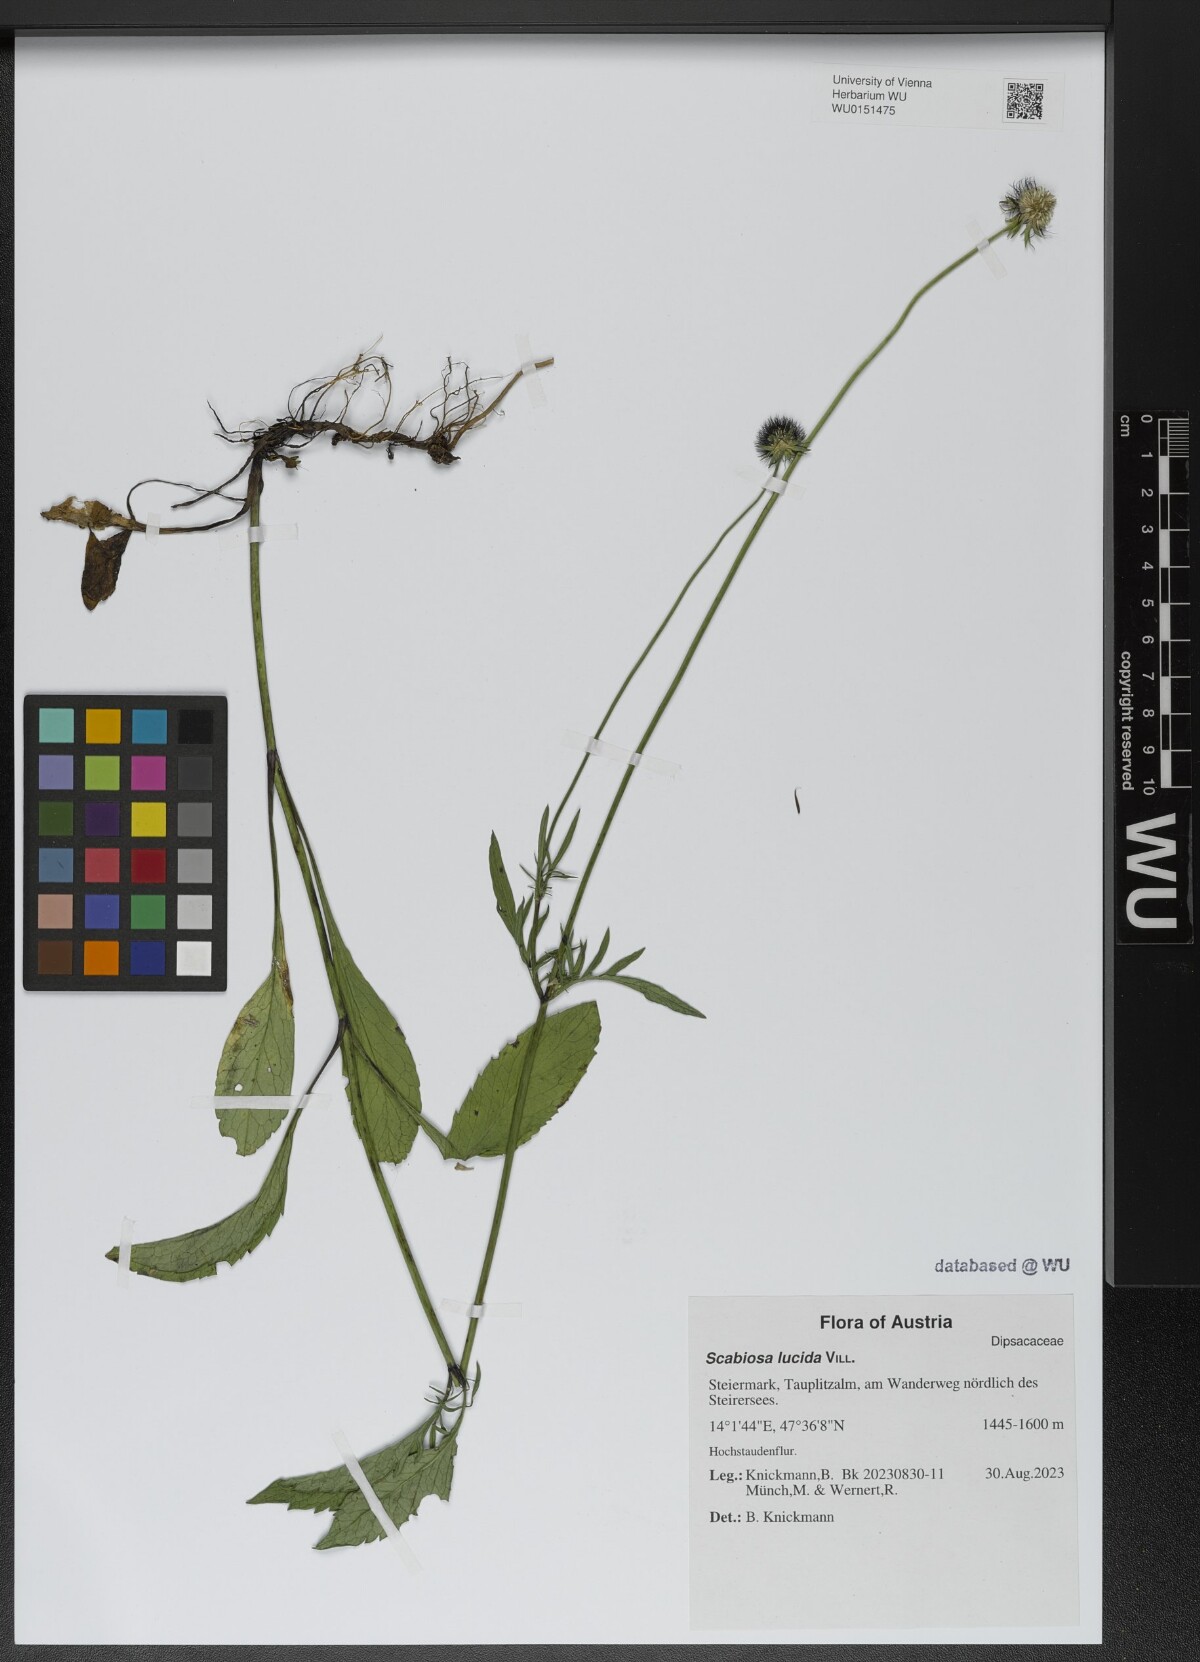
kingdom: Plantae
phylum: Tracheophyta
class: Magnoliopsida
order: Dipsacales
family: Caprifoliaceae
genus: Scabiosa
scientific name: Scabiosa lucida
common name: Shining scabious
